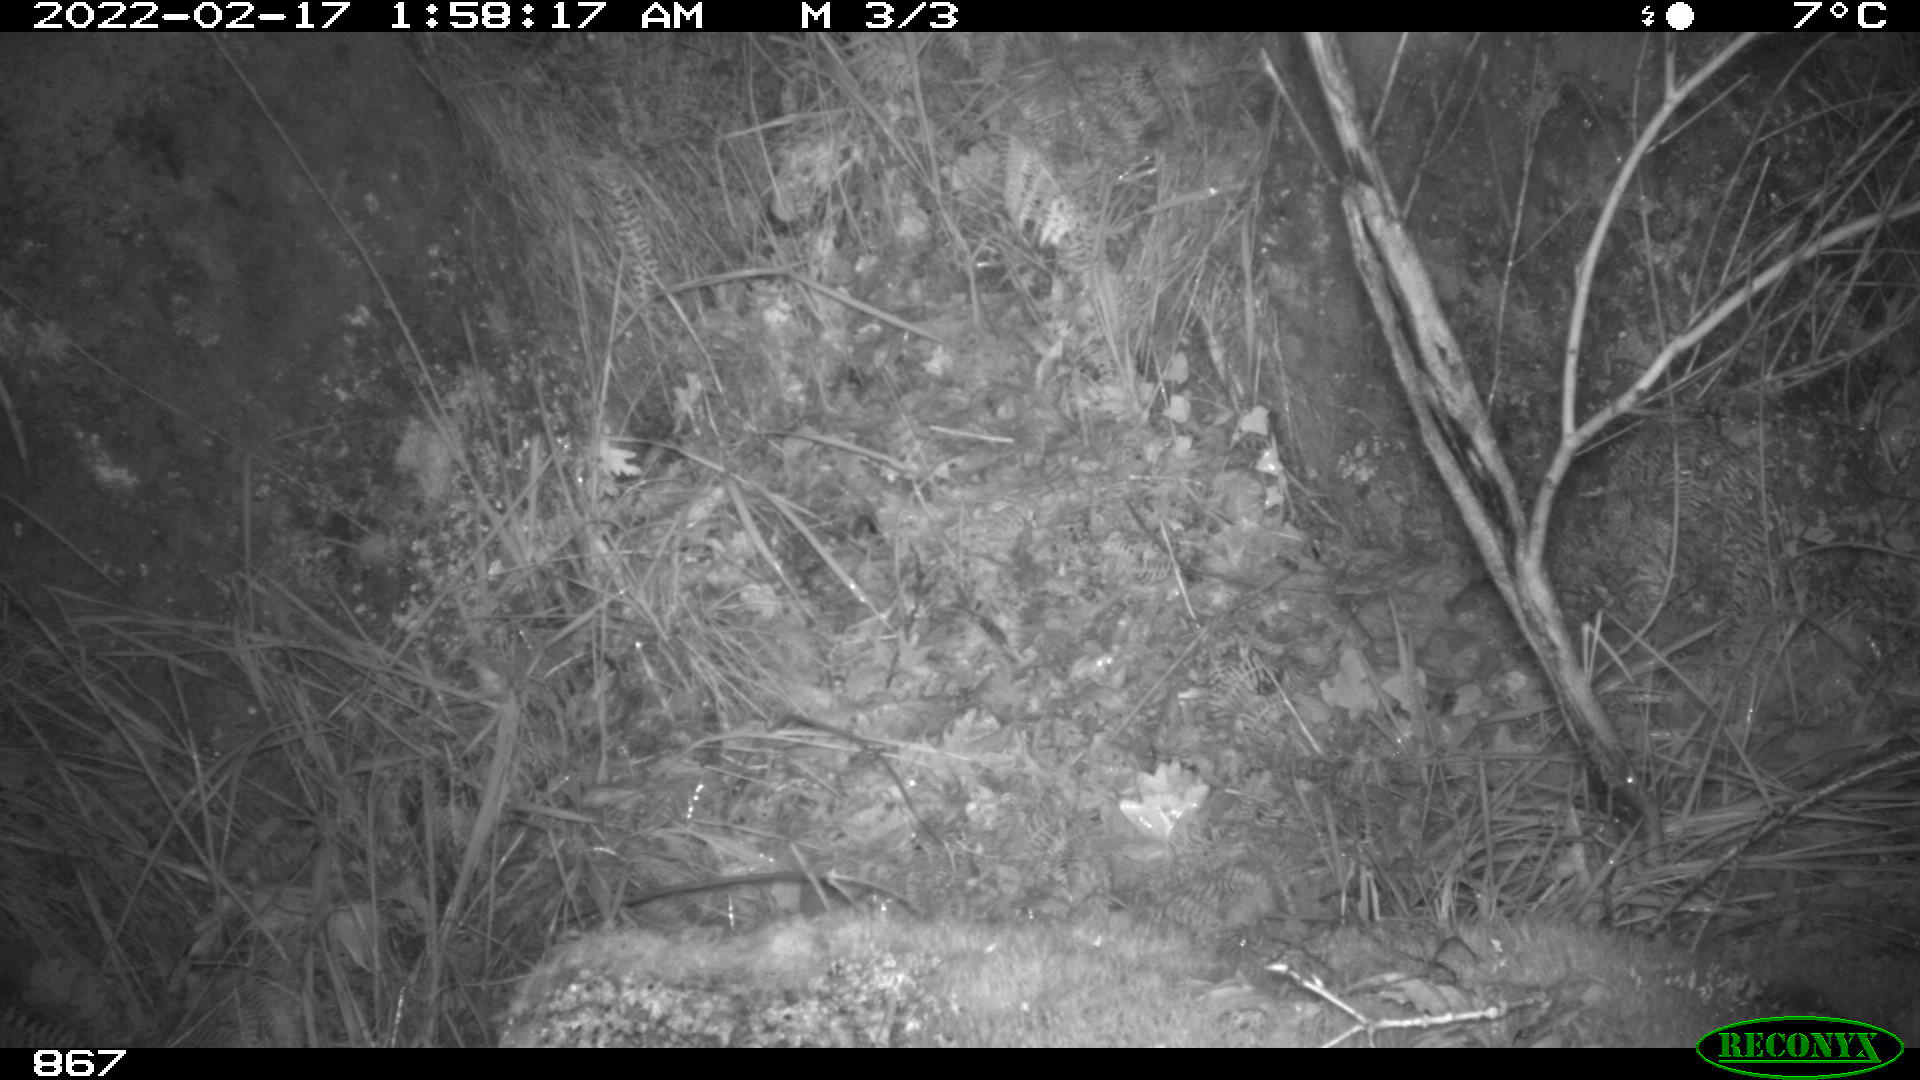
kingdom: Animalia
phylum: Chordata
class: Mammalia
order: Artiodactyla
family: Cervidae
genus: Capreolus
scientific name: Capreolus capreolus
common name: Western roe deer
